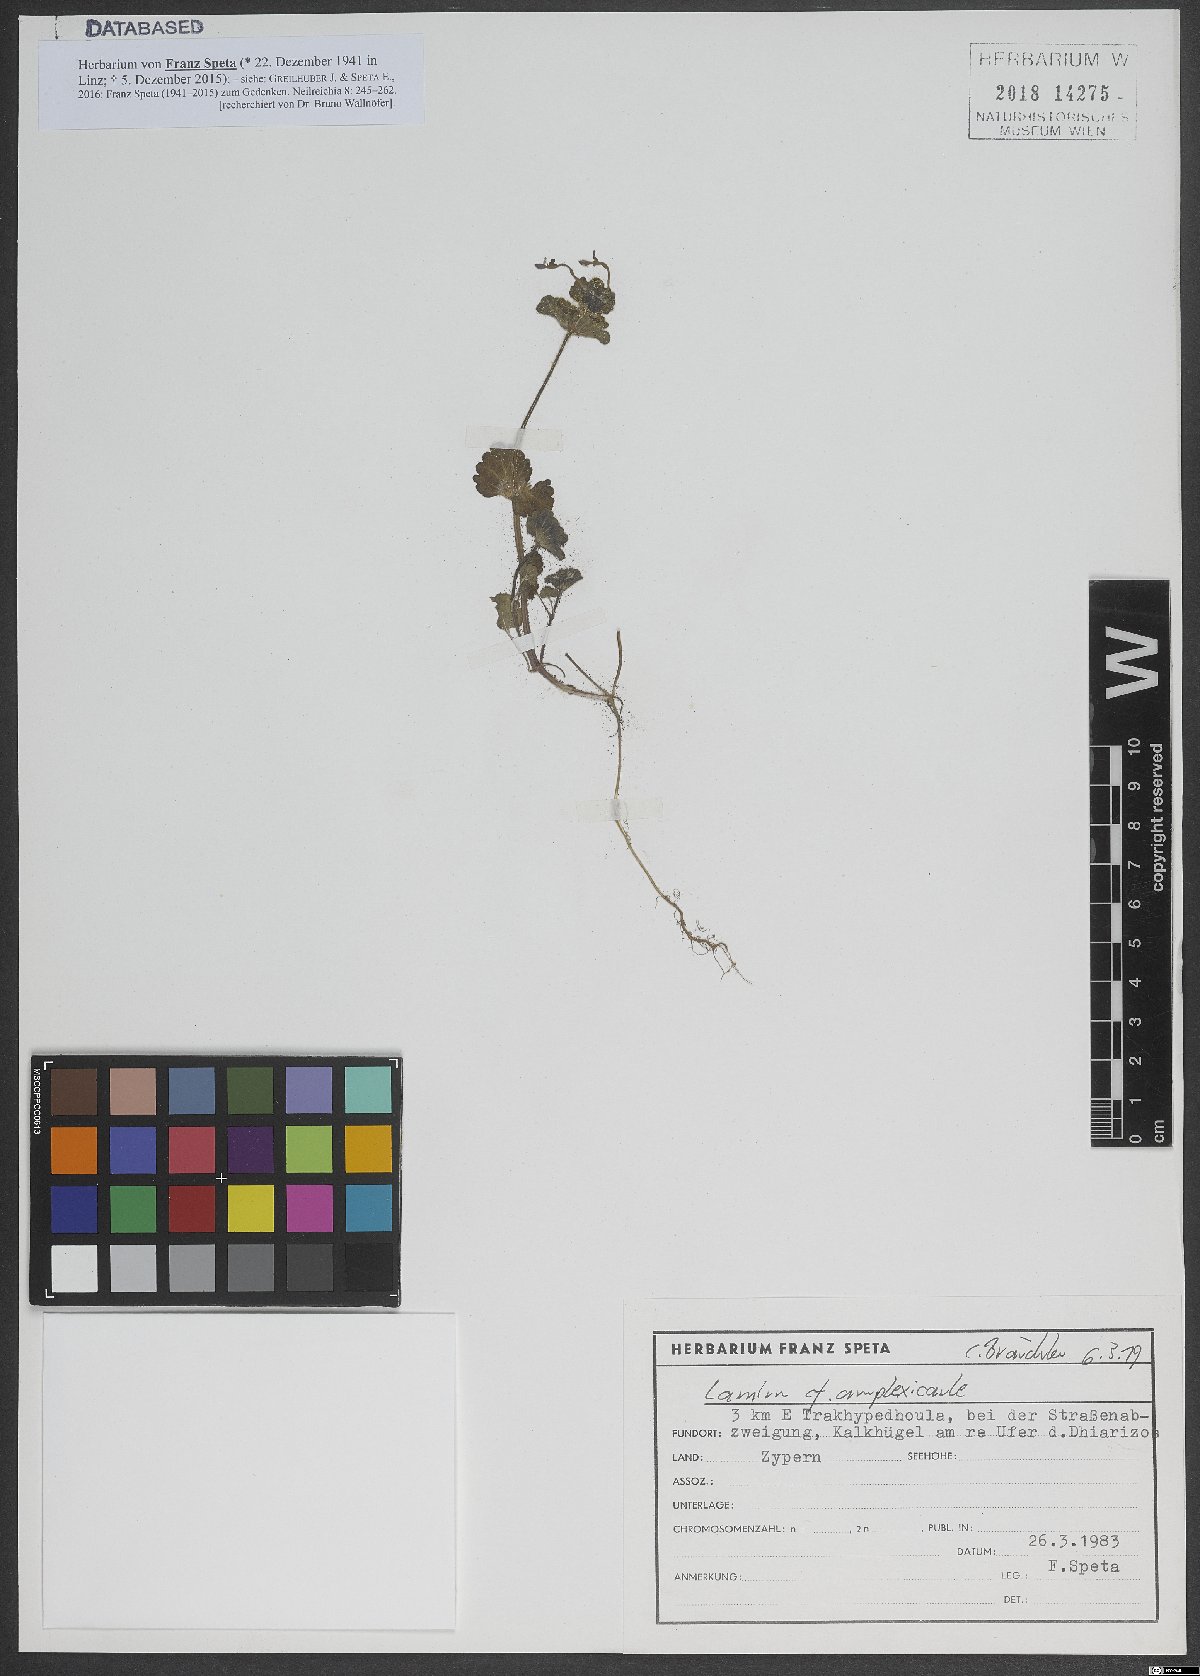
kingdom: Plantae
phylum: Tracheophyta
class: Magnoliopsida
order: Lamiales
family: Lamiaceae
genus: Lamium
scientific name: Lamium amplexicaule
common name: Henbit dead-nettle
